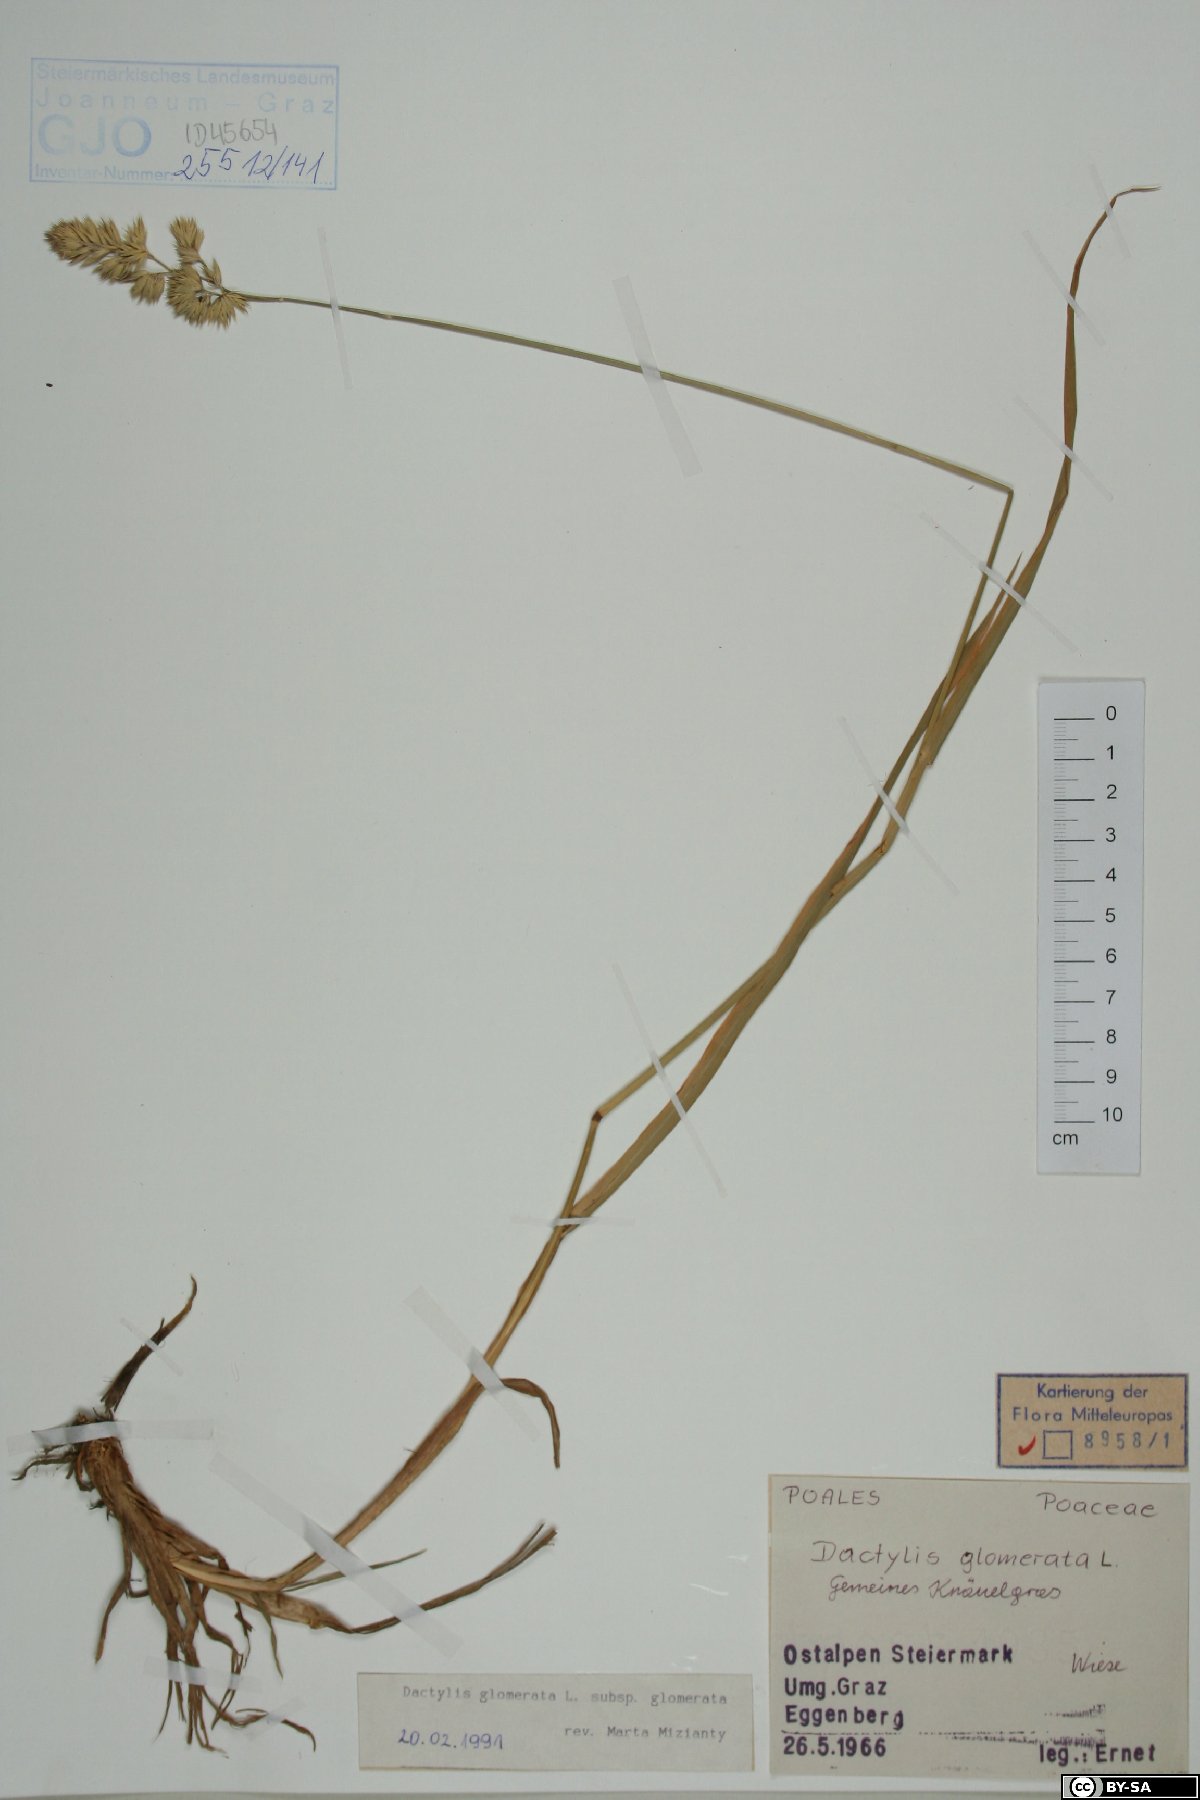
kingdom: Plantae
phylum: Tracheophyta
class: Liliopsida
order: Poales
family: Poaceae
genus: Dactylis
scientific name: Dactylis glomerata
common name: Orchardgrass
